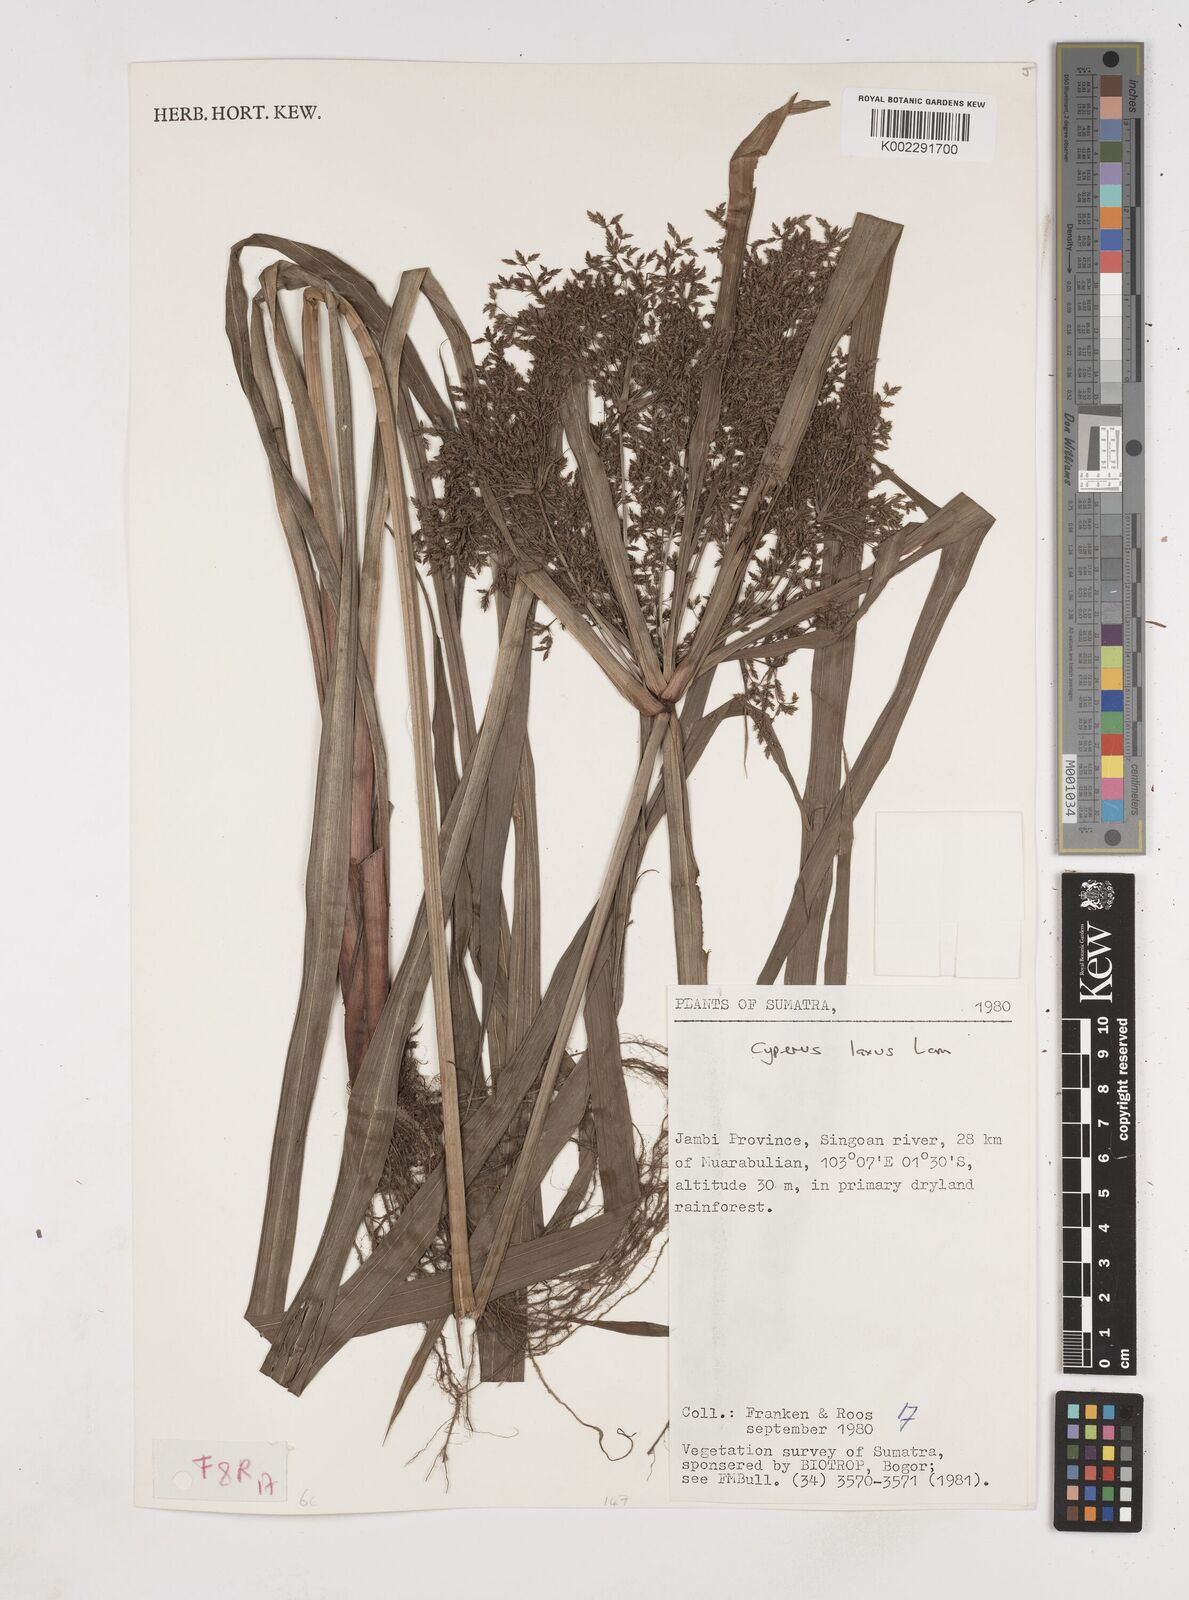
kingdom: Plantae
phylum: Tracheophyta
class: Liliopsida
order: Poales
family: Cyperaceae
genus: Cyperus
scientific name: Cyperus diffusus
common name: Dwarf umbrella grass
